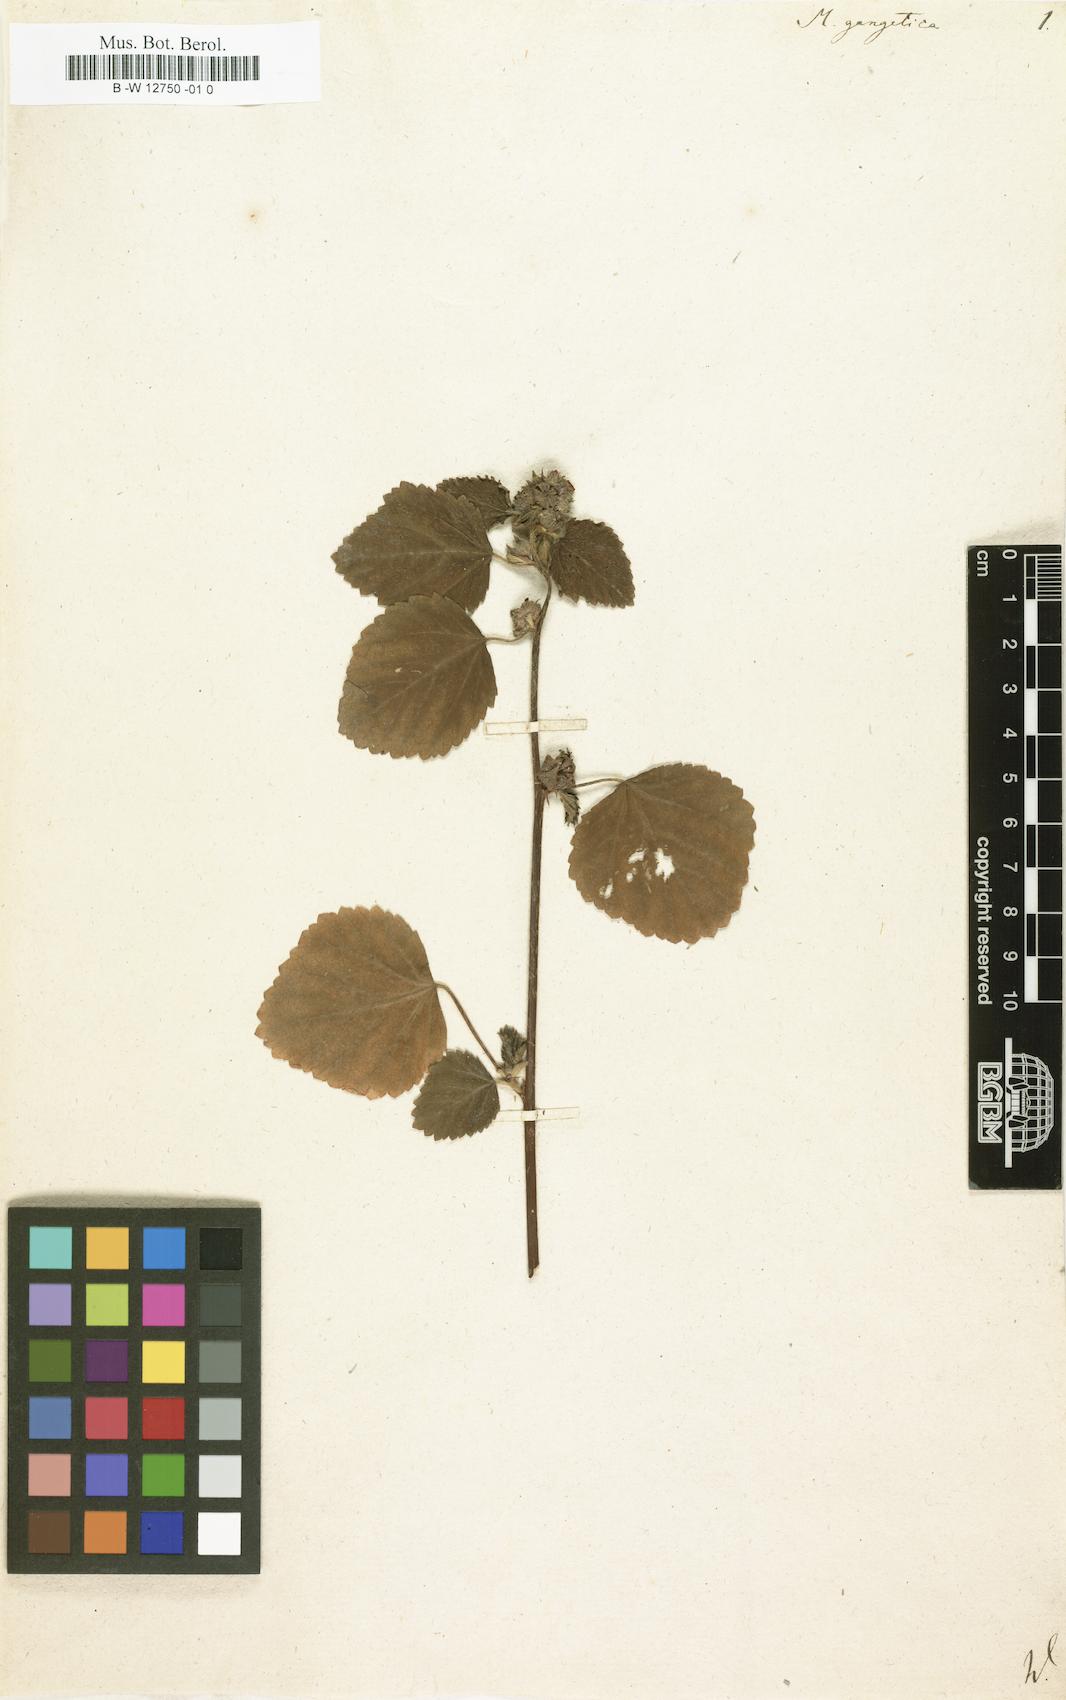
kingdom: Plantae
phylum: Tracheophyta
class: Magnoliopsida
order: Malvales
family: Malvaceae
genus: Malvastrum
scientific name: Malvastrum americanum
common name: Spiked malvastrum
